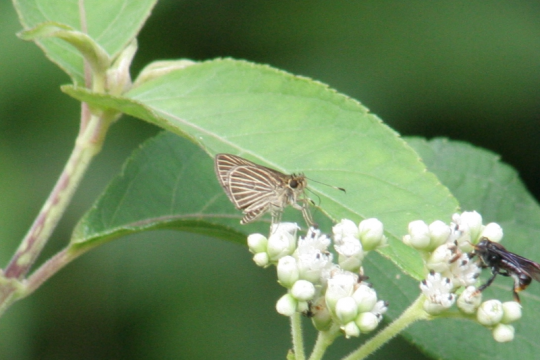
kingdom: Animalia
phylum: Arthropoda
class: Insecta
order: Lepidoptera
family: Hesperiidae
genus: Callimormus
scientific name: Callimormus radiola
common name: Radiant Skipper
